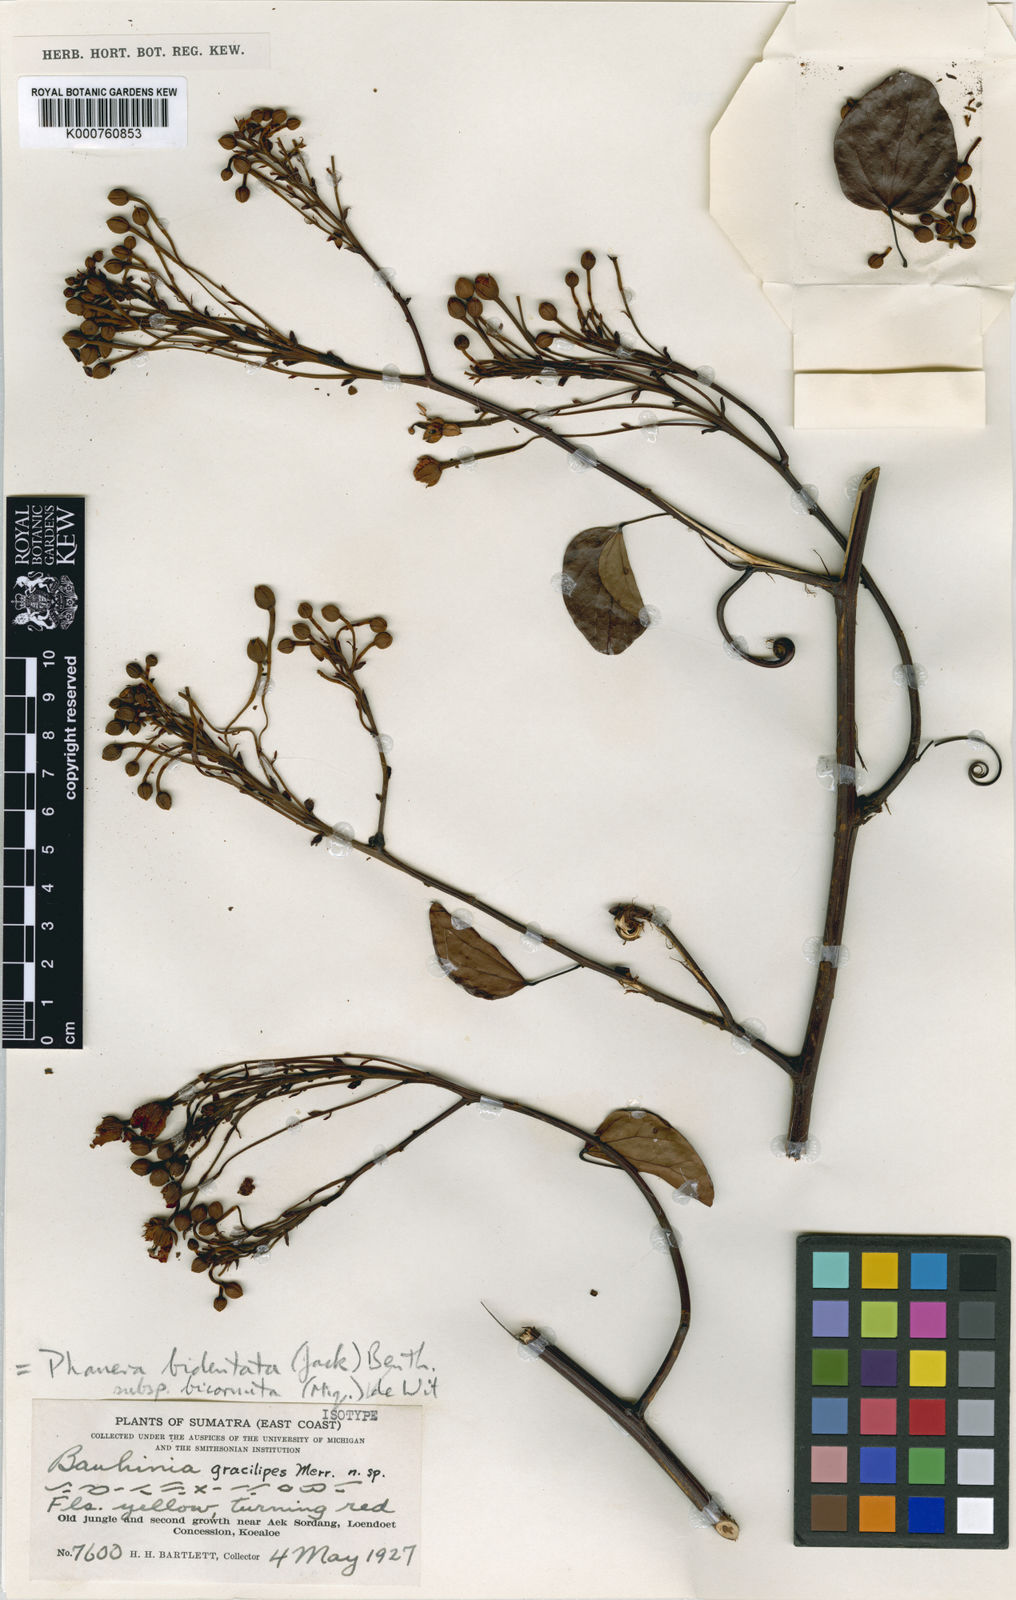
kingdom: Plantae
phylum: Tracheophyta
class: Magnoliopsida
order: Fabales
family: Fabaceae
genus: Phanera
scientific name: Phanera bidentata
